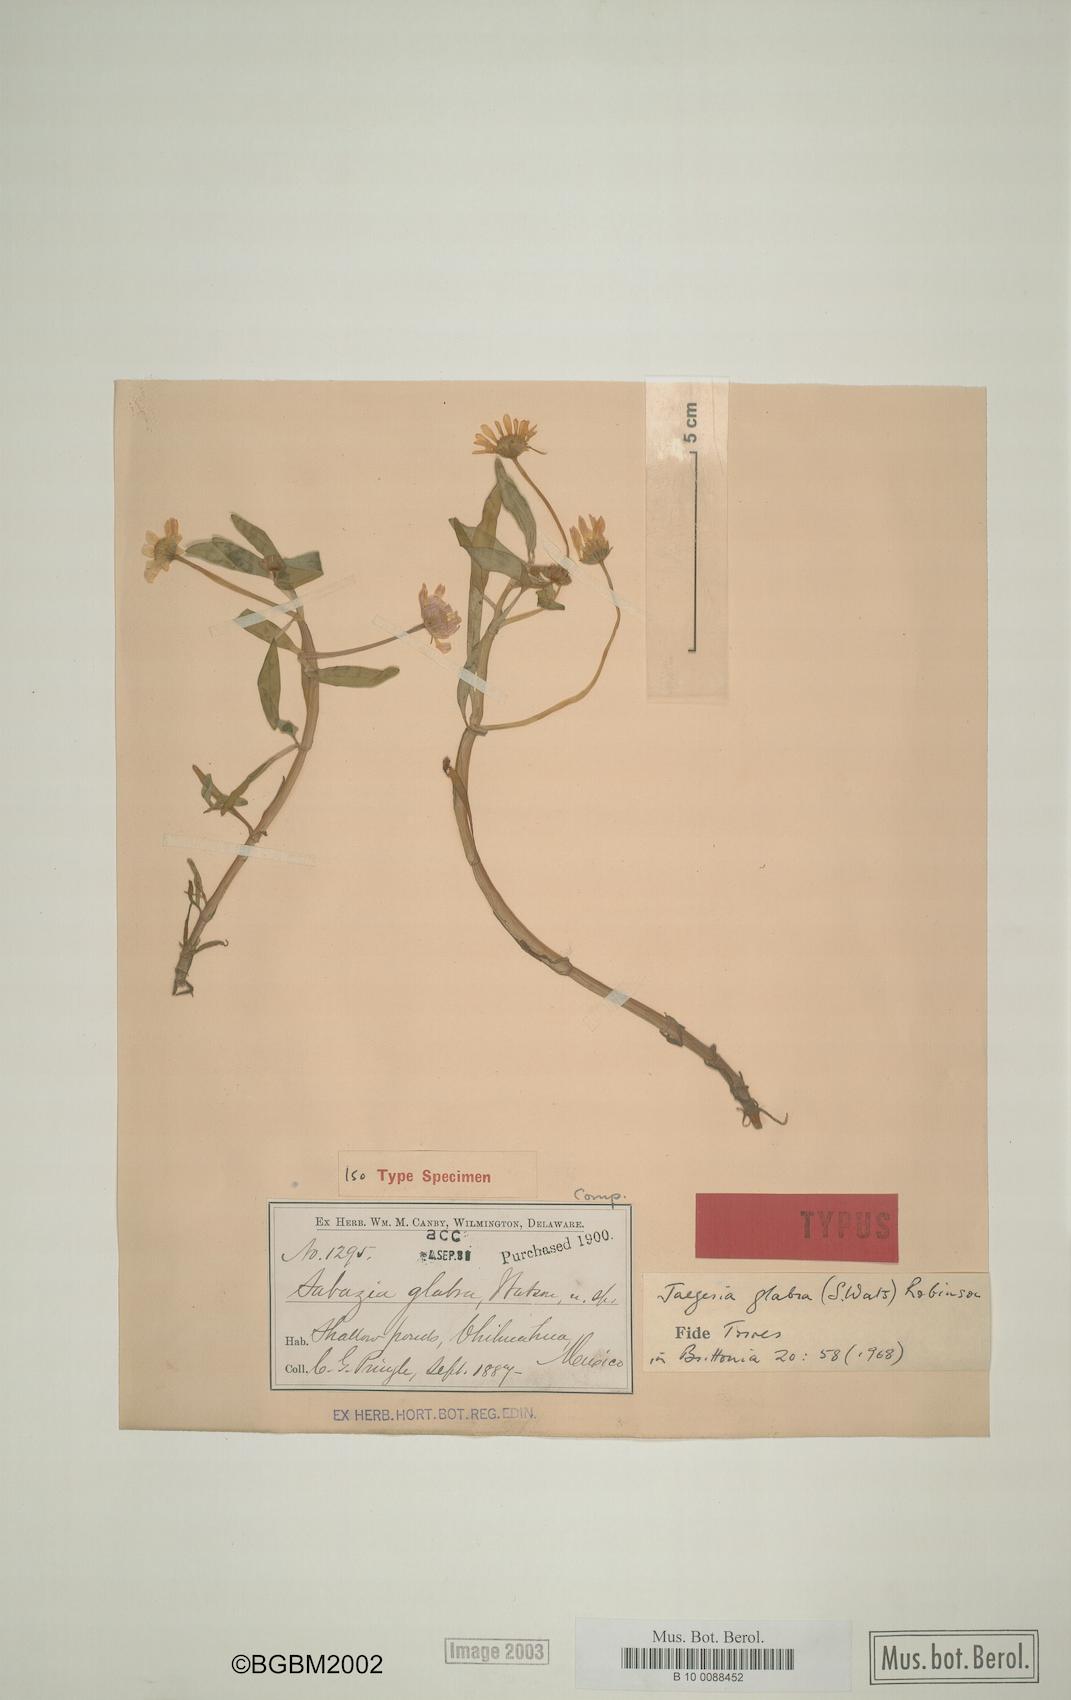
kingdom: Plantae
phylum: Tracheophyta
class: Magnoliopsida
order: Asterales
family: Asteraceae
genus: Jaegeria
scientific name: Jaegeria glabra
